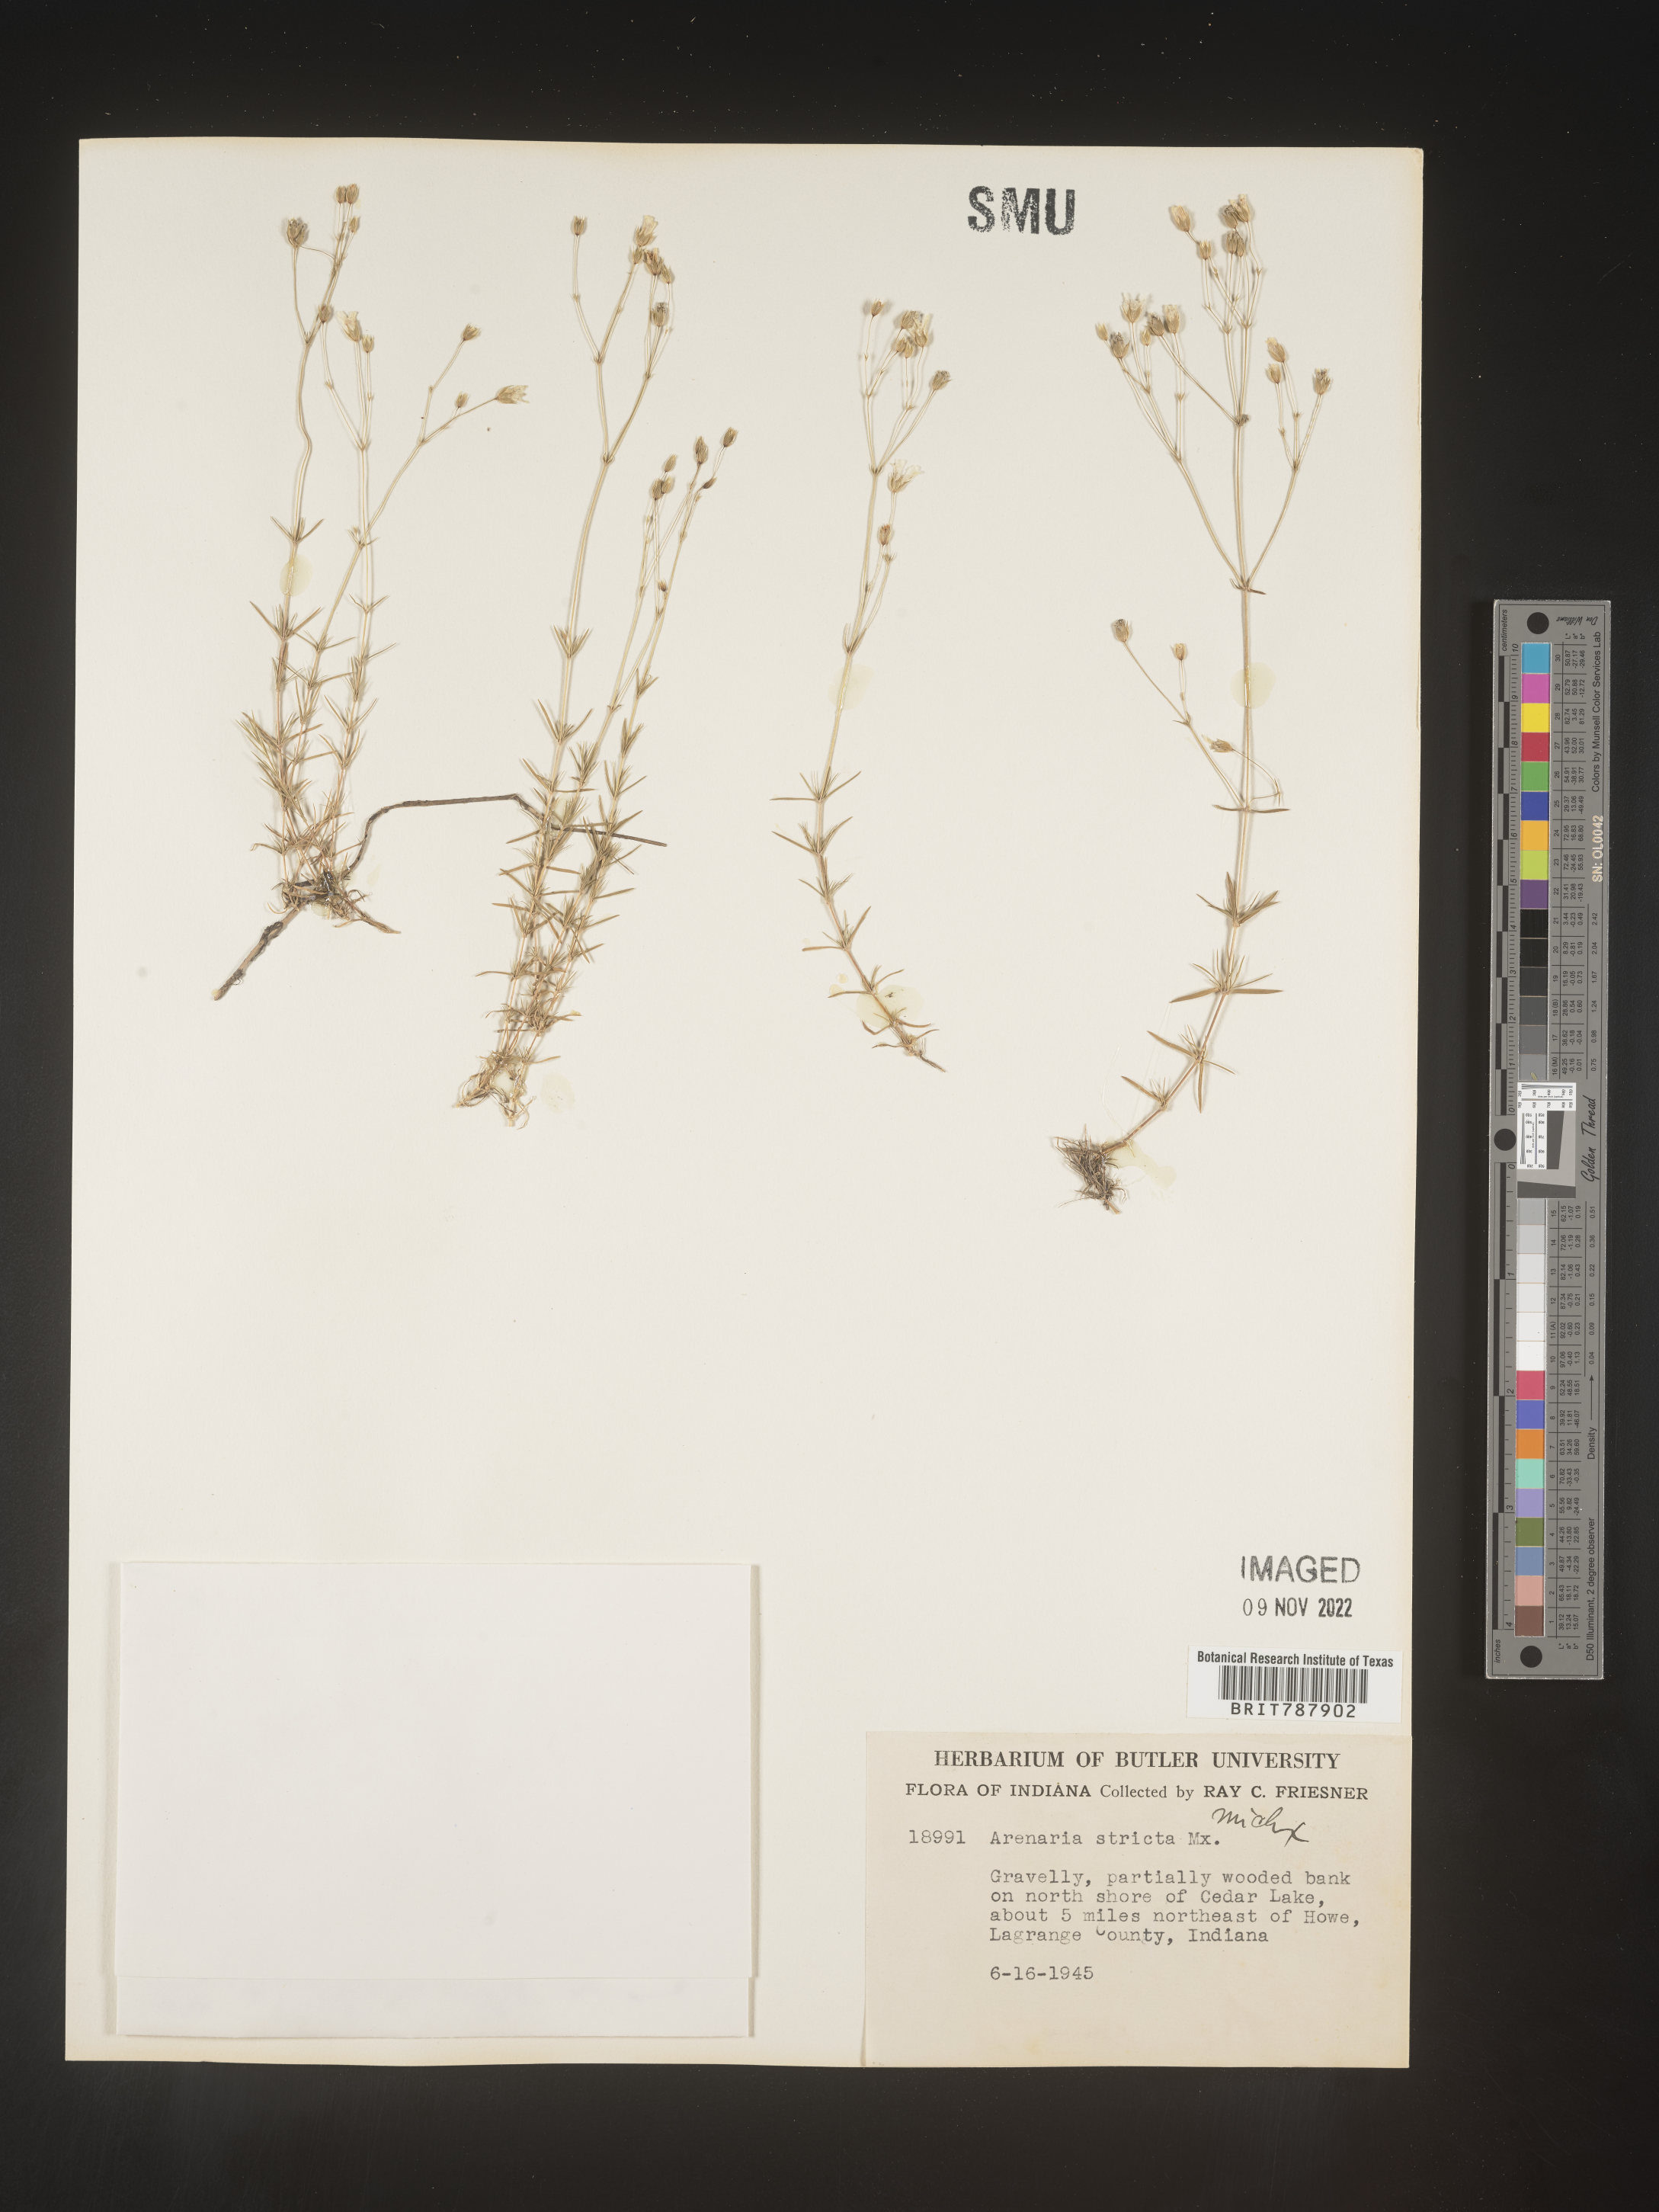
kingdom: Plantae
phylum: Tracheophyta
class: Magnoliopsida
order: Caryophyllales
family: Caryophyllaceae
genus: Sabulina
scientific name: Sabulina michauxii
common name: Michaux's stitchwort
